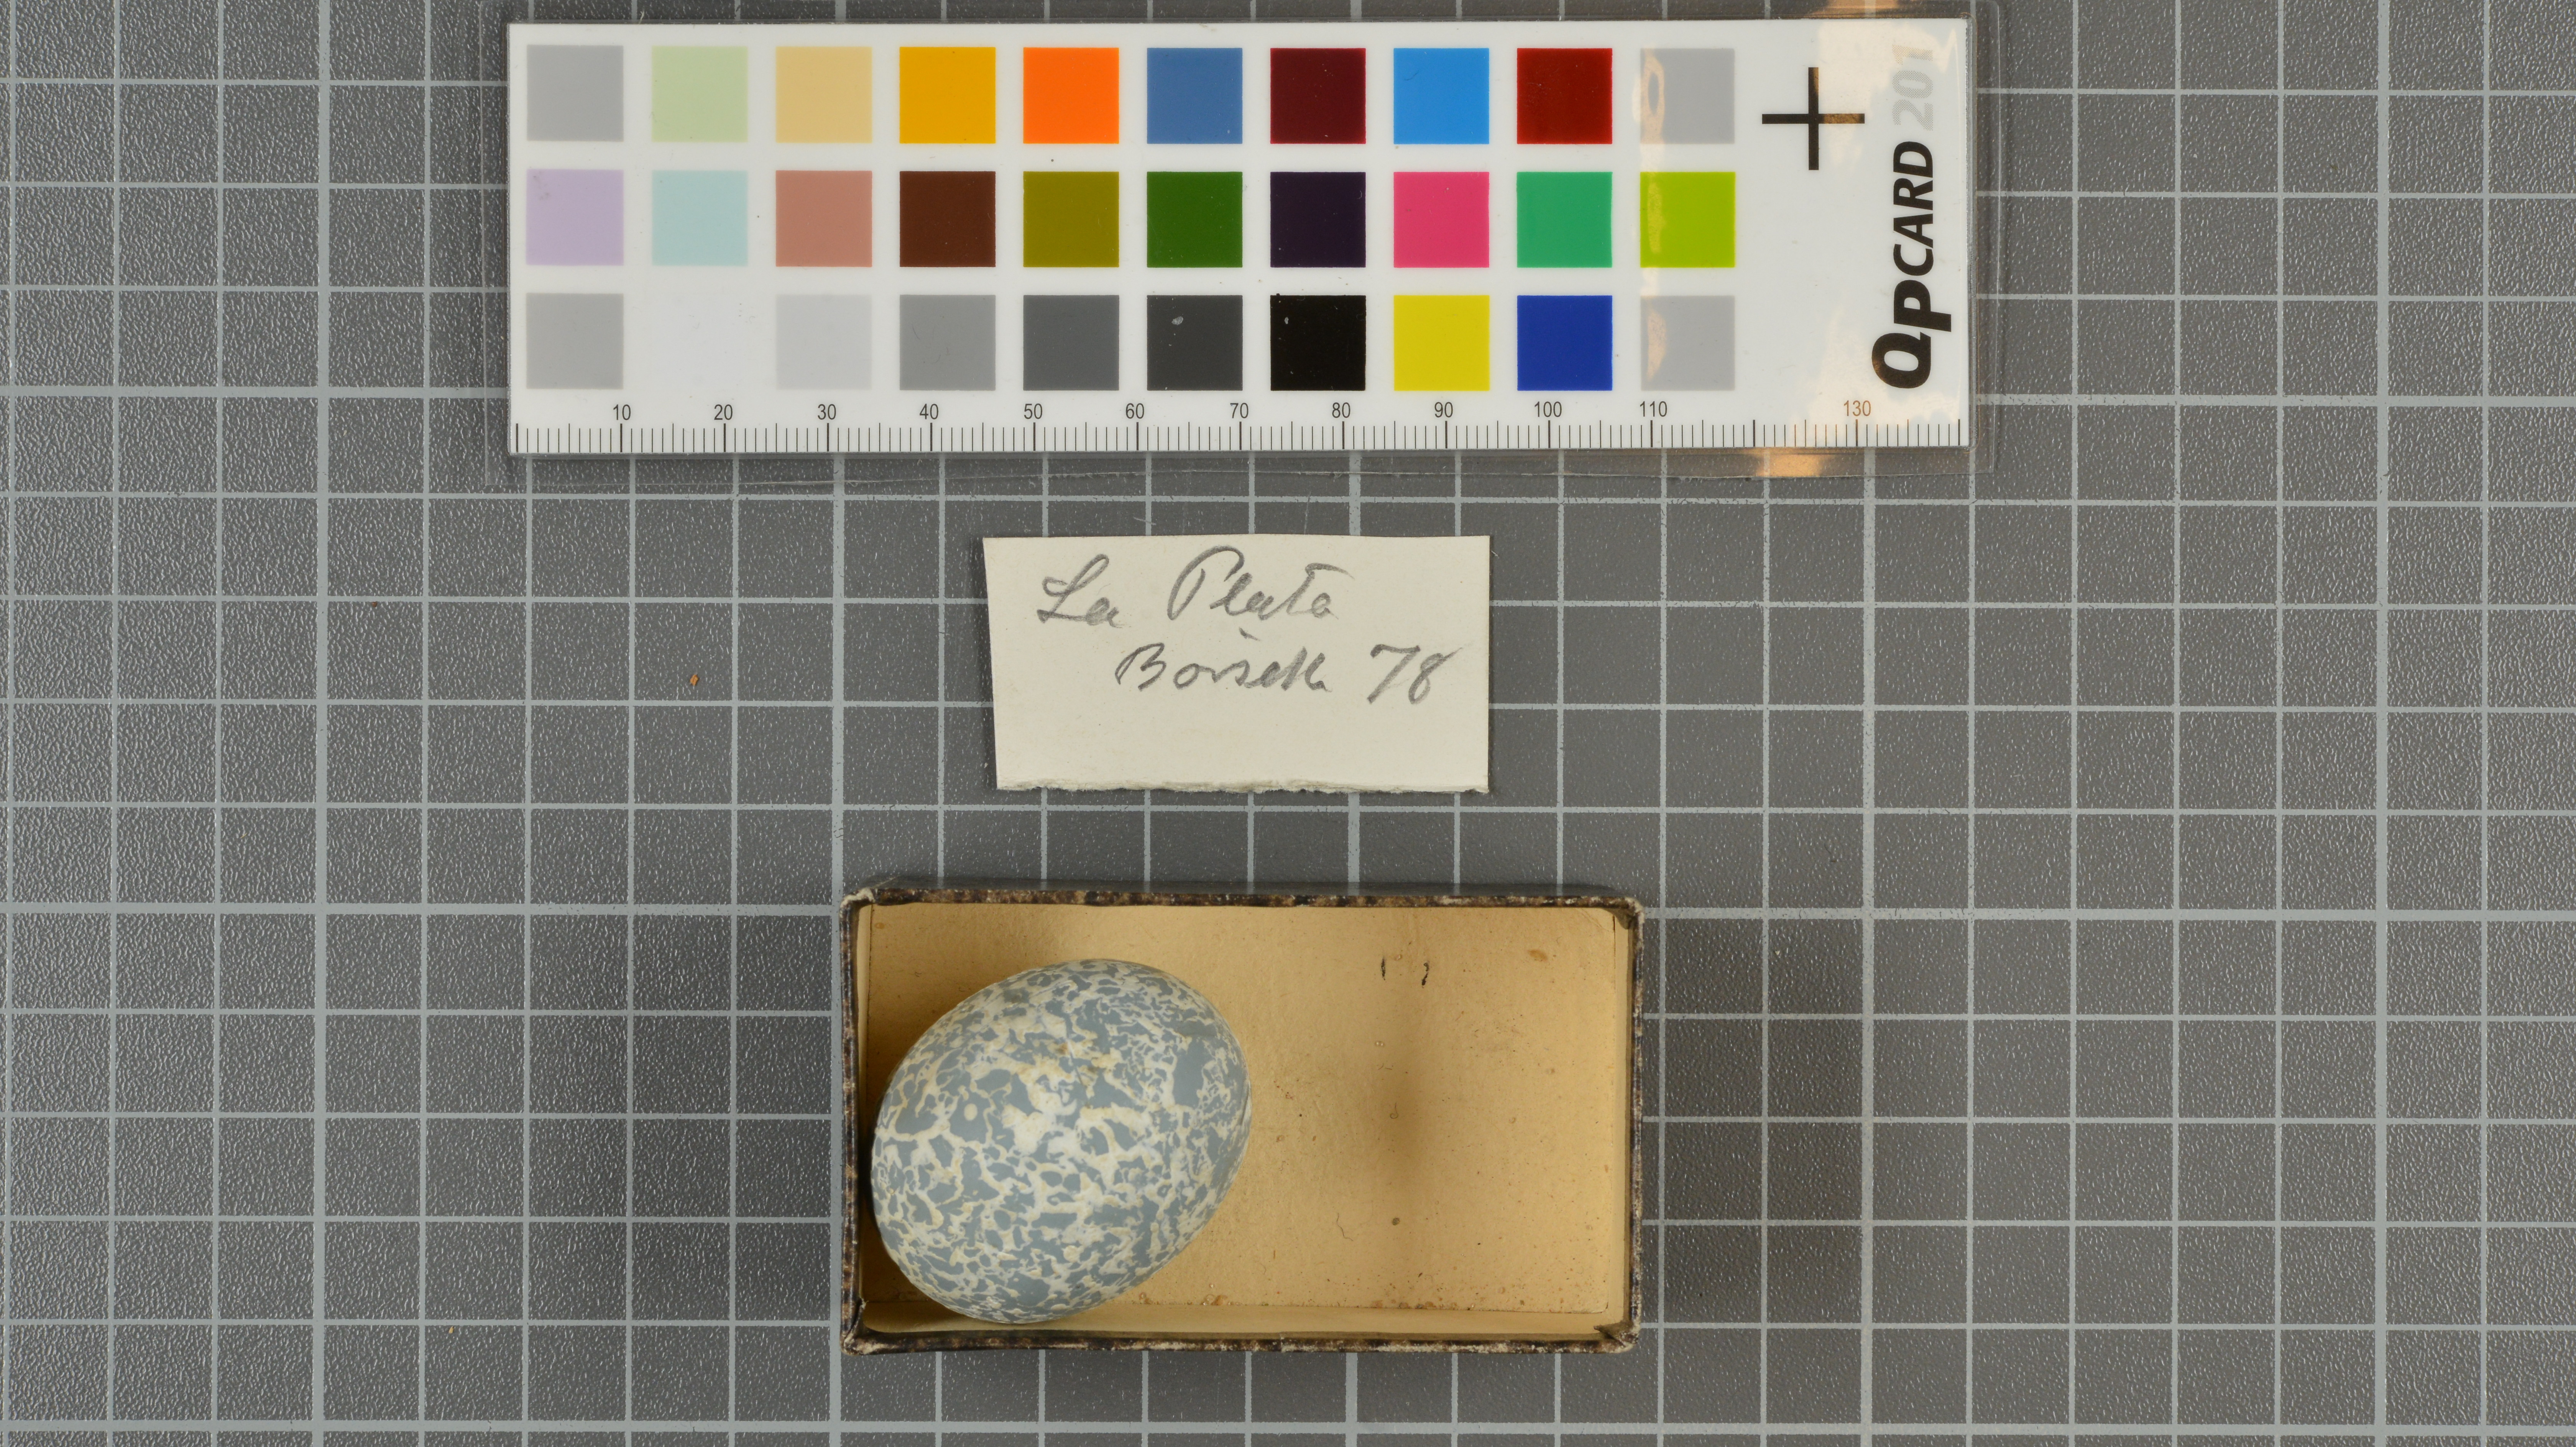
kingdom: Animalia
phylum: Chordata
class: Aves
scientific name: Aves
